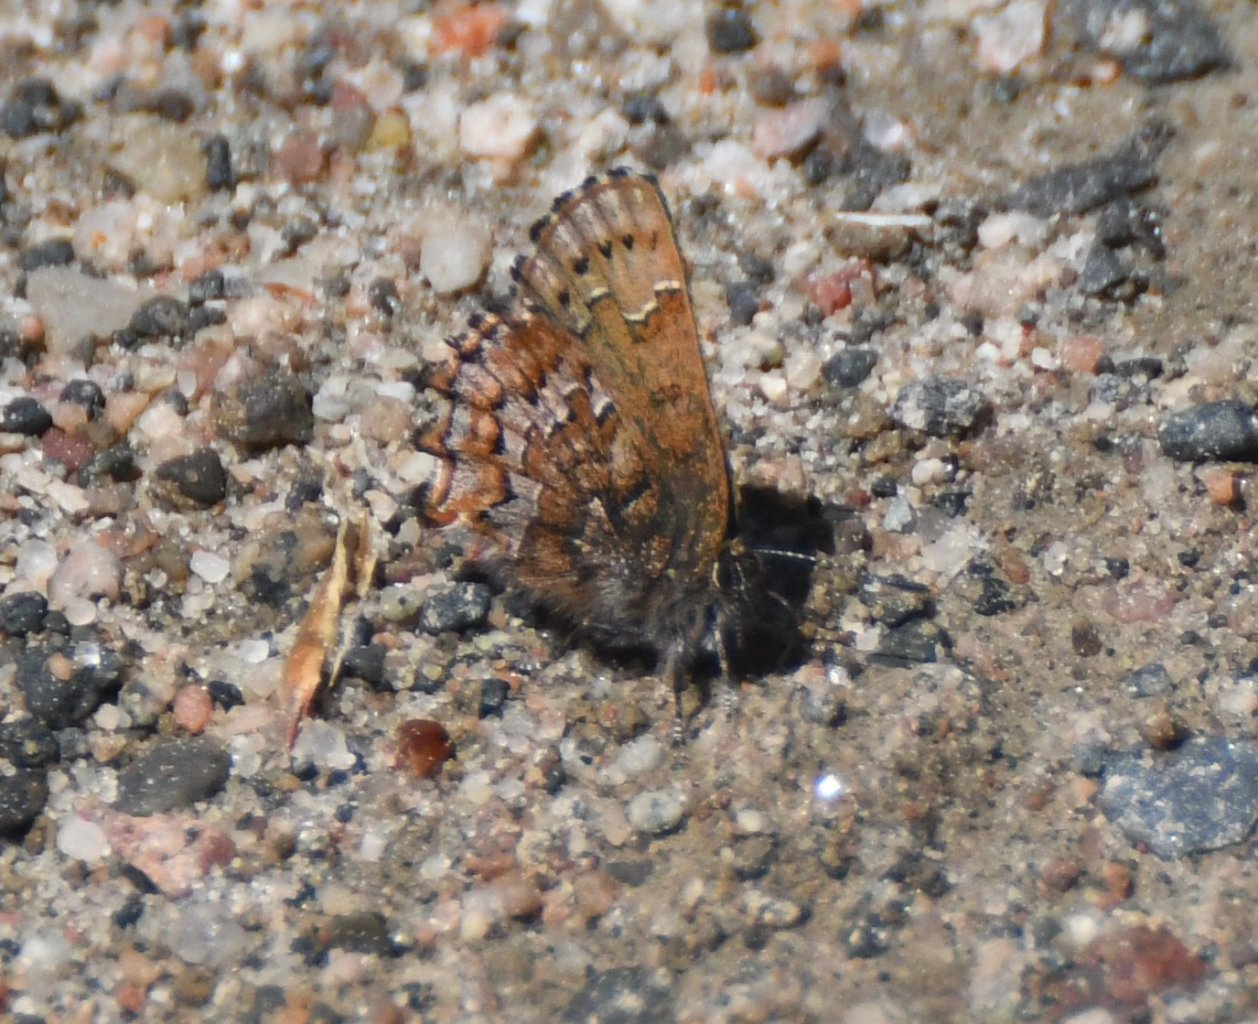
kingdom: Animalia
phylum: Arthropoda
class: Insecta
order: Lepidoptera
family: Lycaenidae
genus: Incisalia
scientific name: Incisalia niphon
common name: Eastern Pine Elfin
